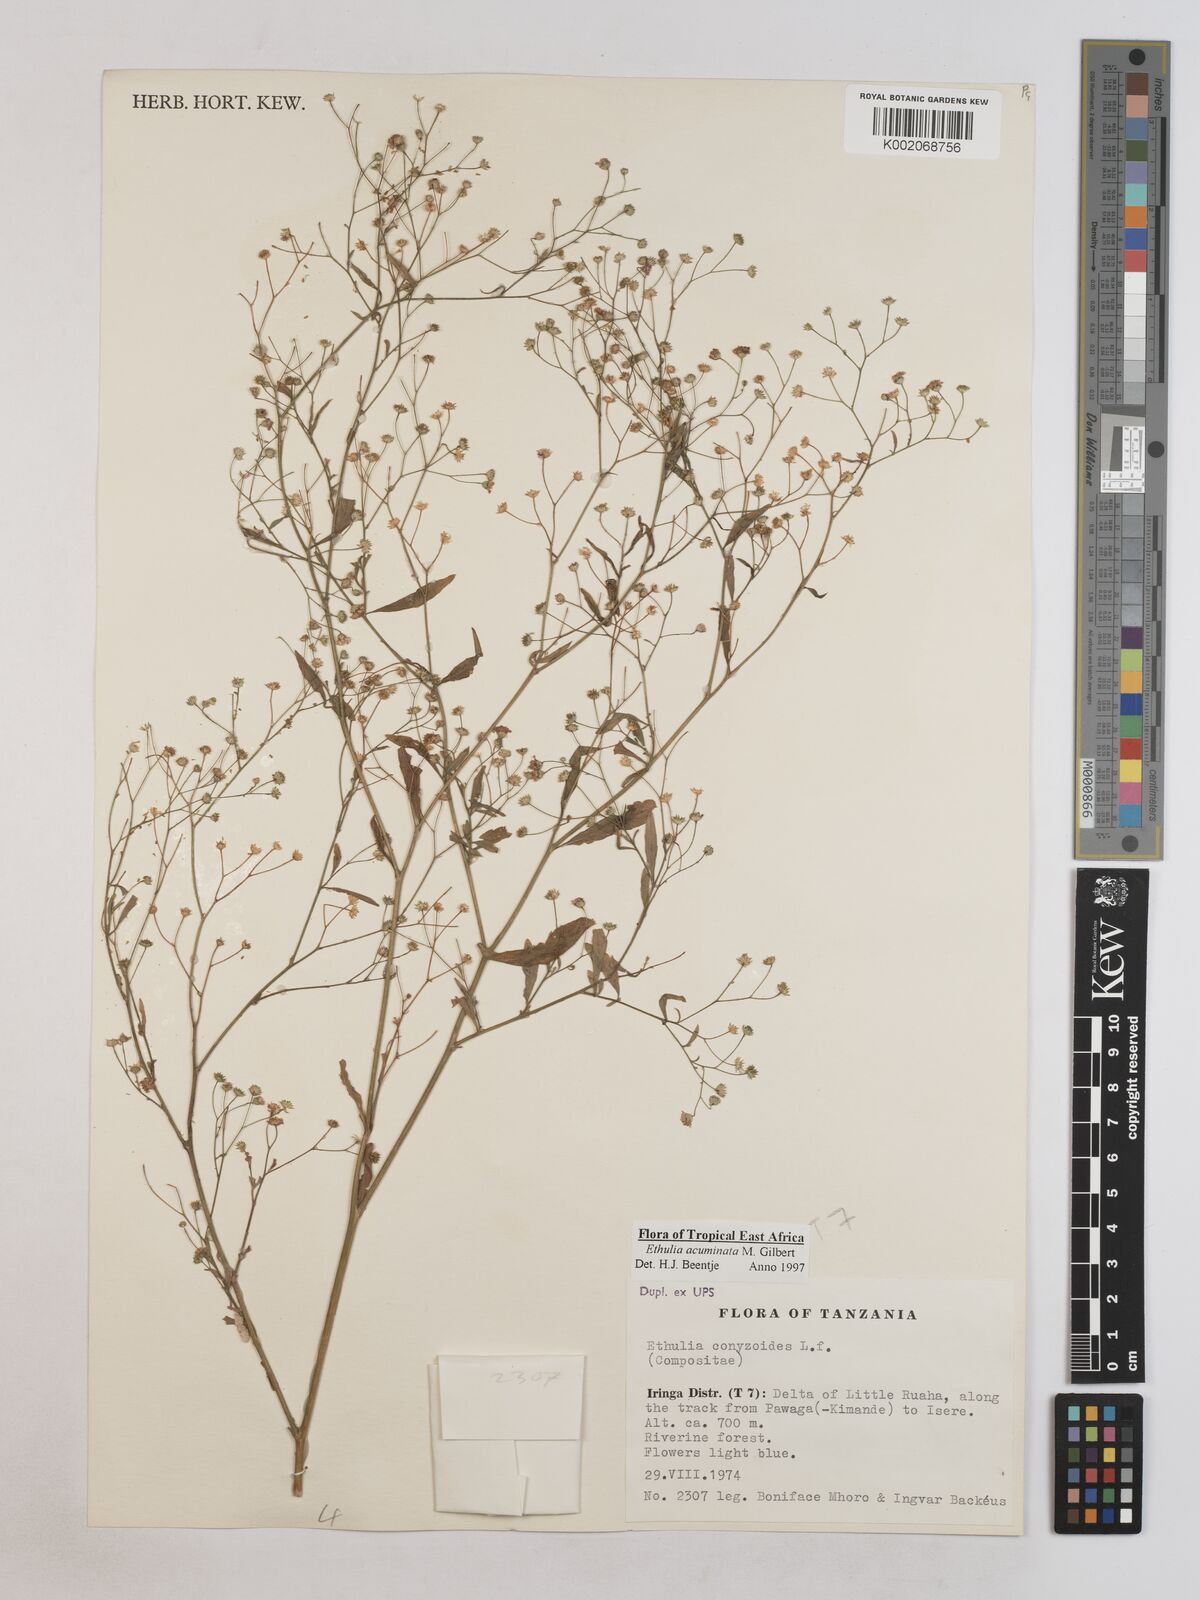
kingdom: Plantae
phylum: Tracheophyta
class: Magnoliopsida
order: Asterales
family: Asteraceae
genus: Ethulia
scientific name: Ethulia acuminata
